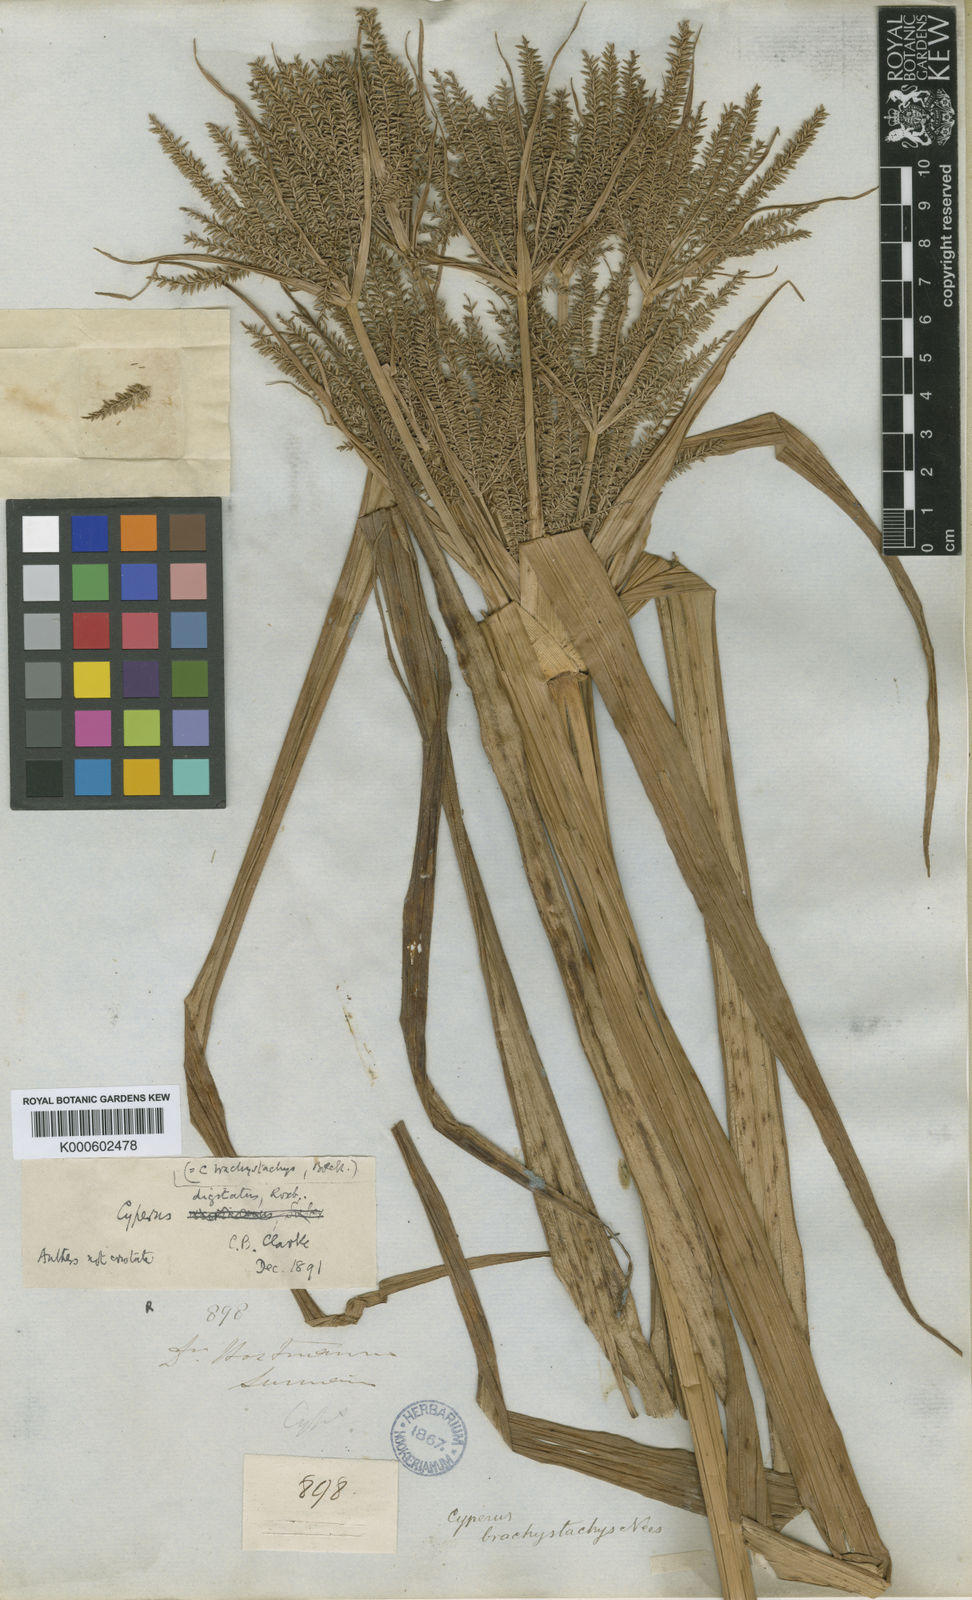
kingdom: Plantae
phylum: Tracheophyta
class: Liliopsida
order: Poales
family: Cyperaceae
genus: Cyperus
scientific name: Cyperus digitatus
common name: Finger flatsedge
